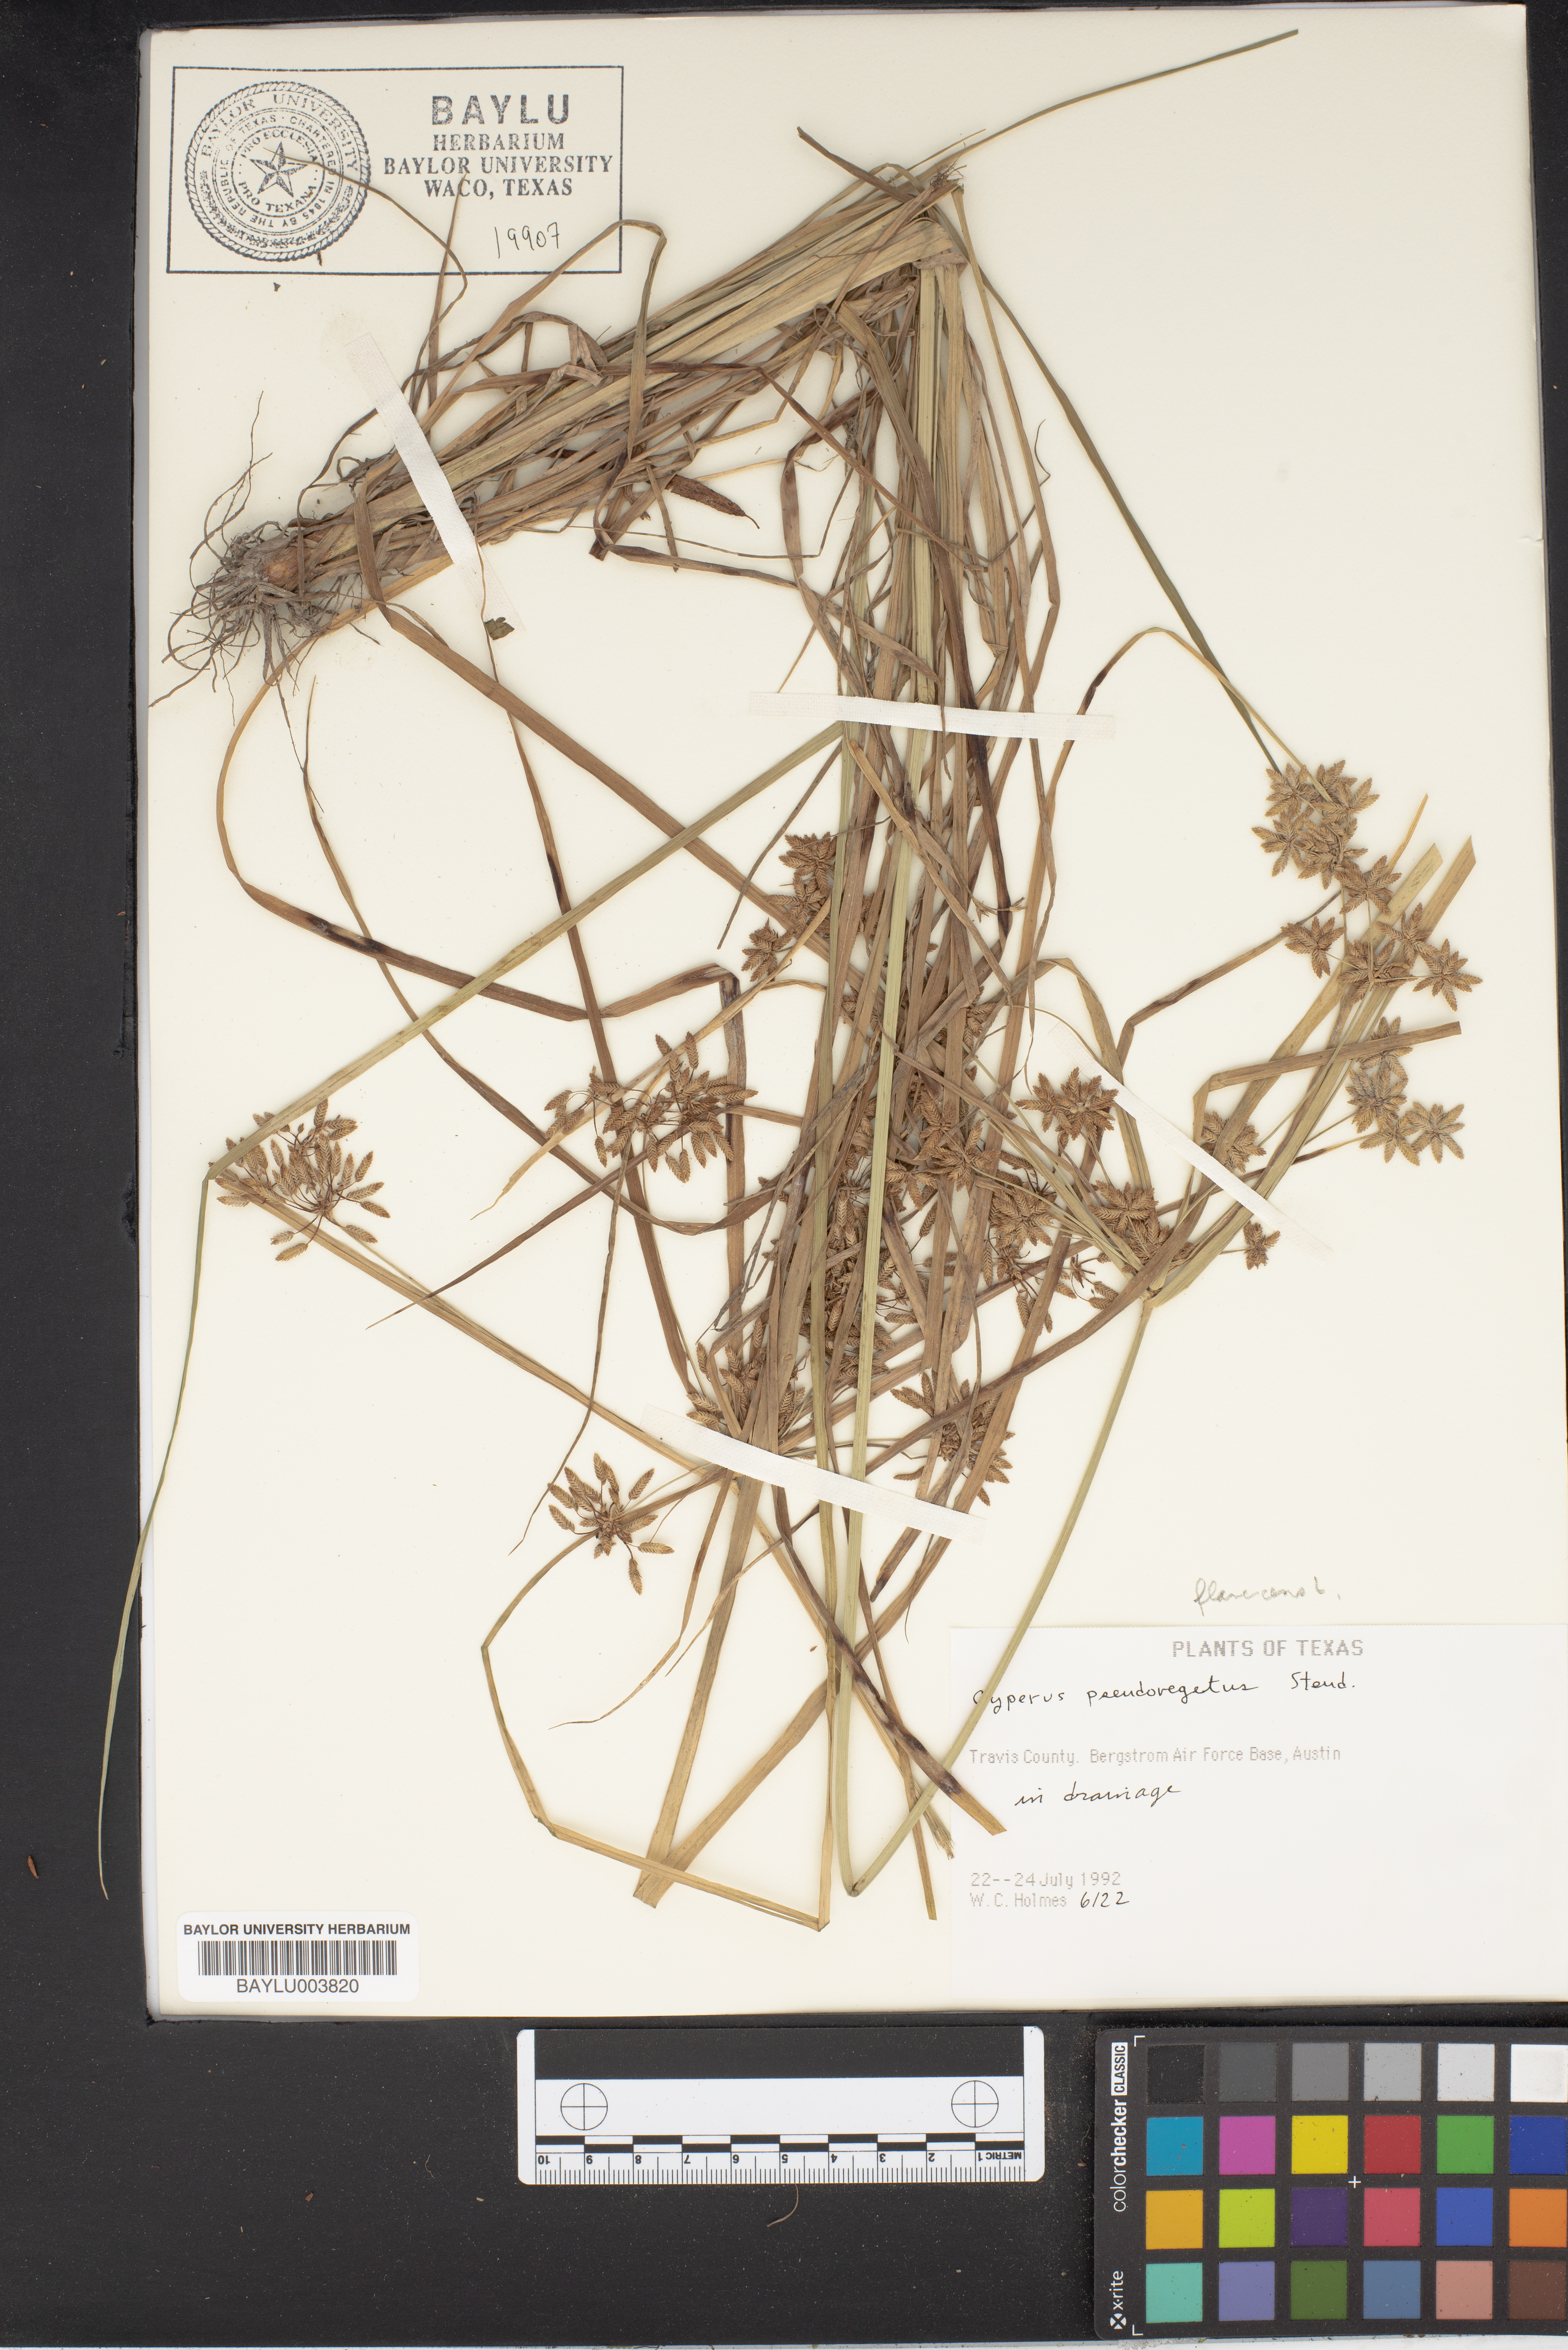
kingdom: Plantae
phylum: Tracheophyta
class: Liliopsida
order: Poales
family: Cyperaceae
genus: Cyperus
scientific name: Cyperus pseudovegetus
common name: Marsh flat sedge
